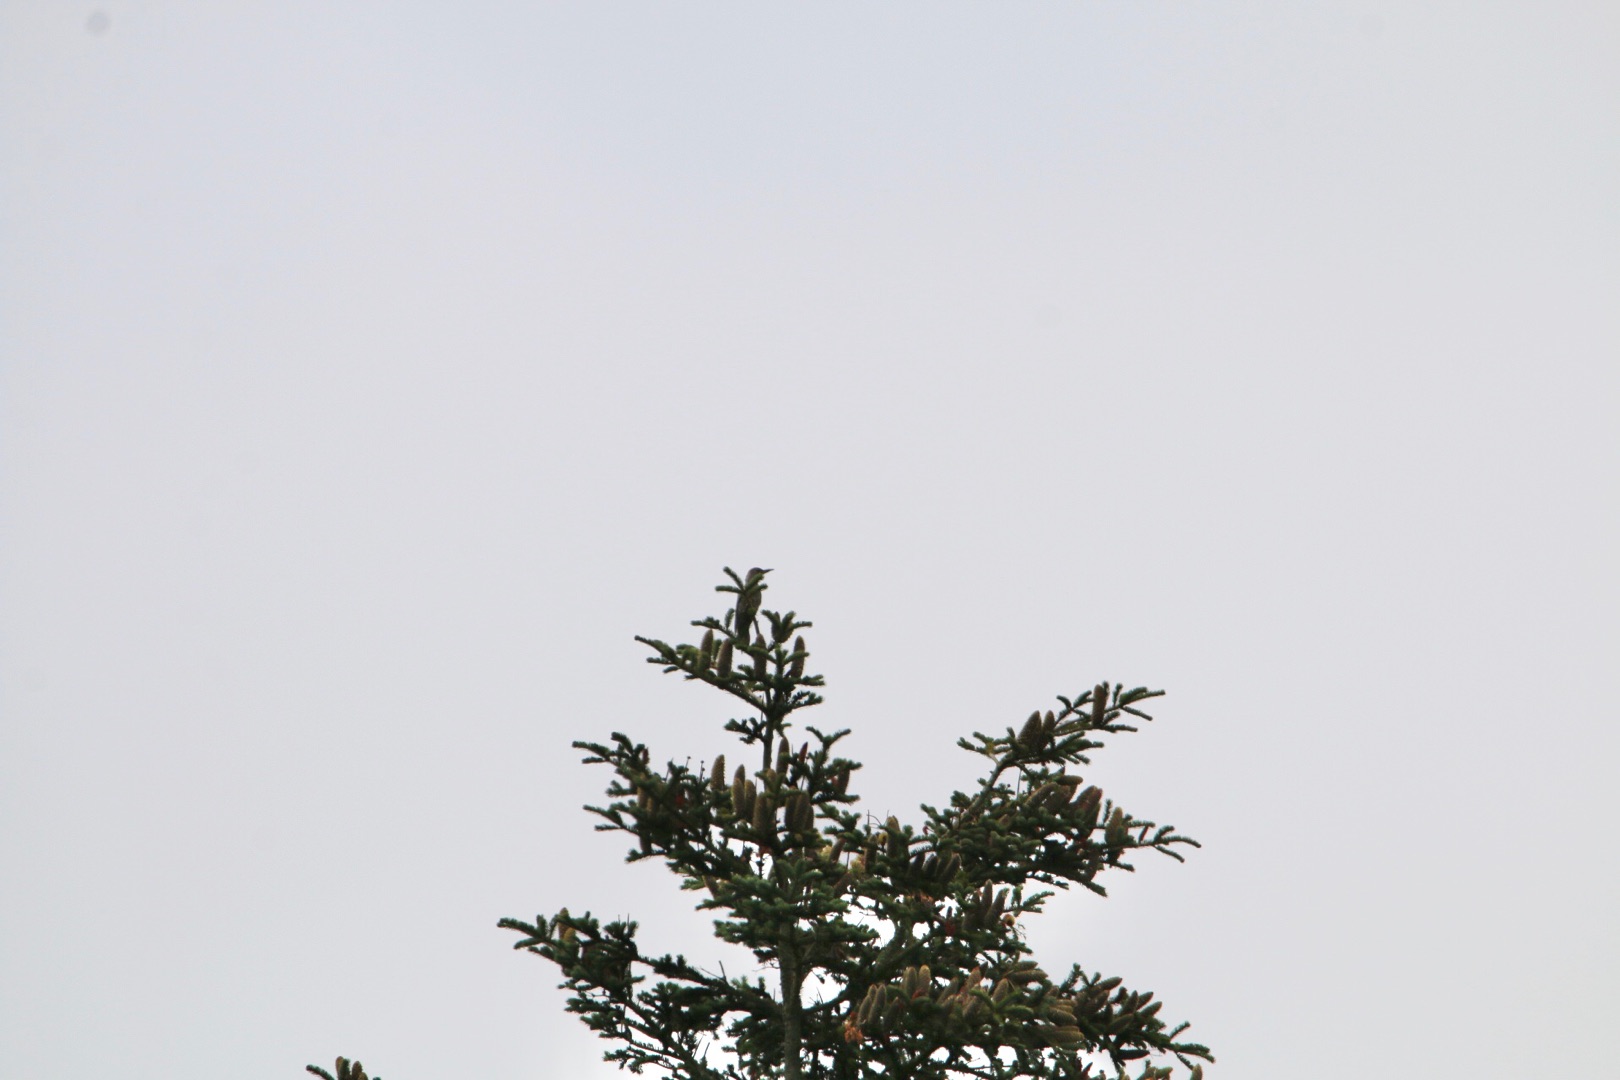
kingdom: Animalia
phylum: Chordata
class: Aves
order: Piciformes
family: Picidae
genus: Picus
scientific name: Picus viridis
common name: Grønspætte
